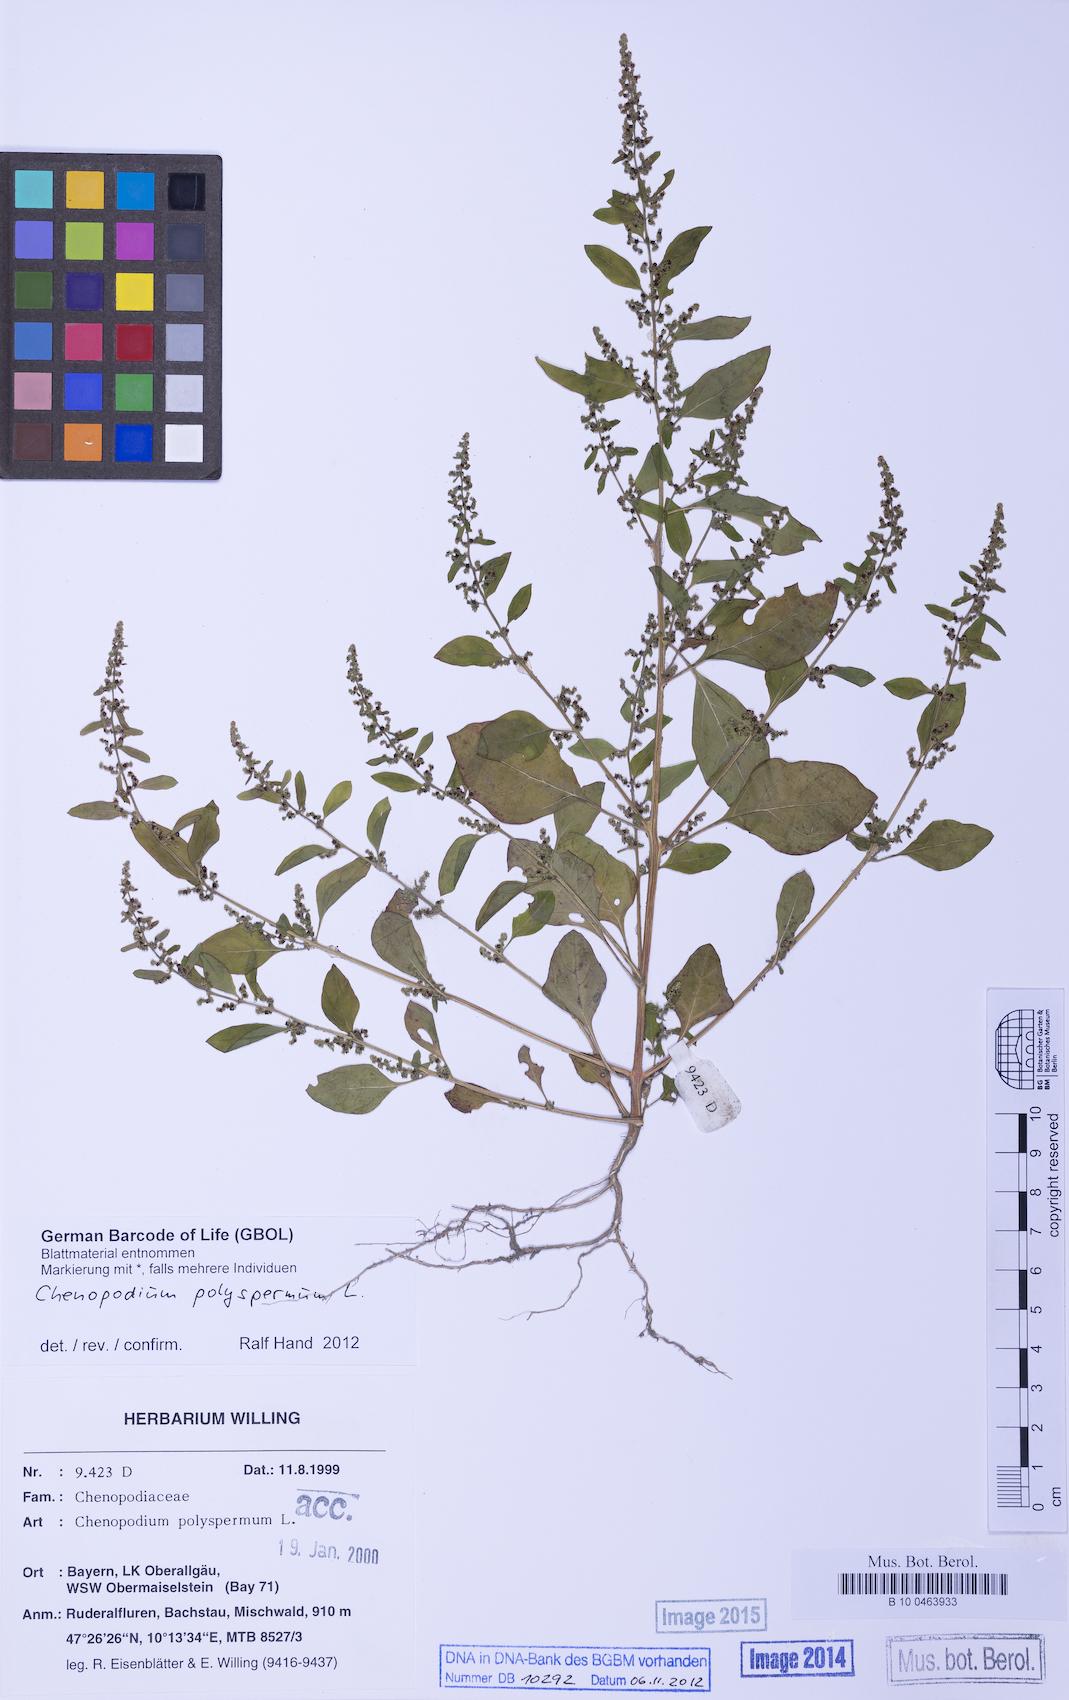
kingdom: Plantae
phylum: Tracheophyta
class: Magnoliopsida
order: Caryophyllales
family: Amaranthaceae
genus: Lipandra
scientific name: Lipandra polysperma
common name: Many-seed goosefoot
